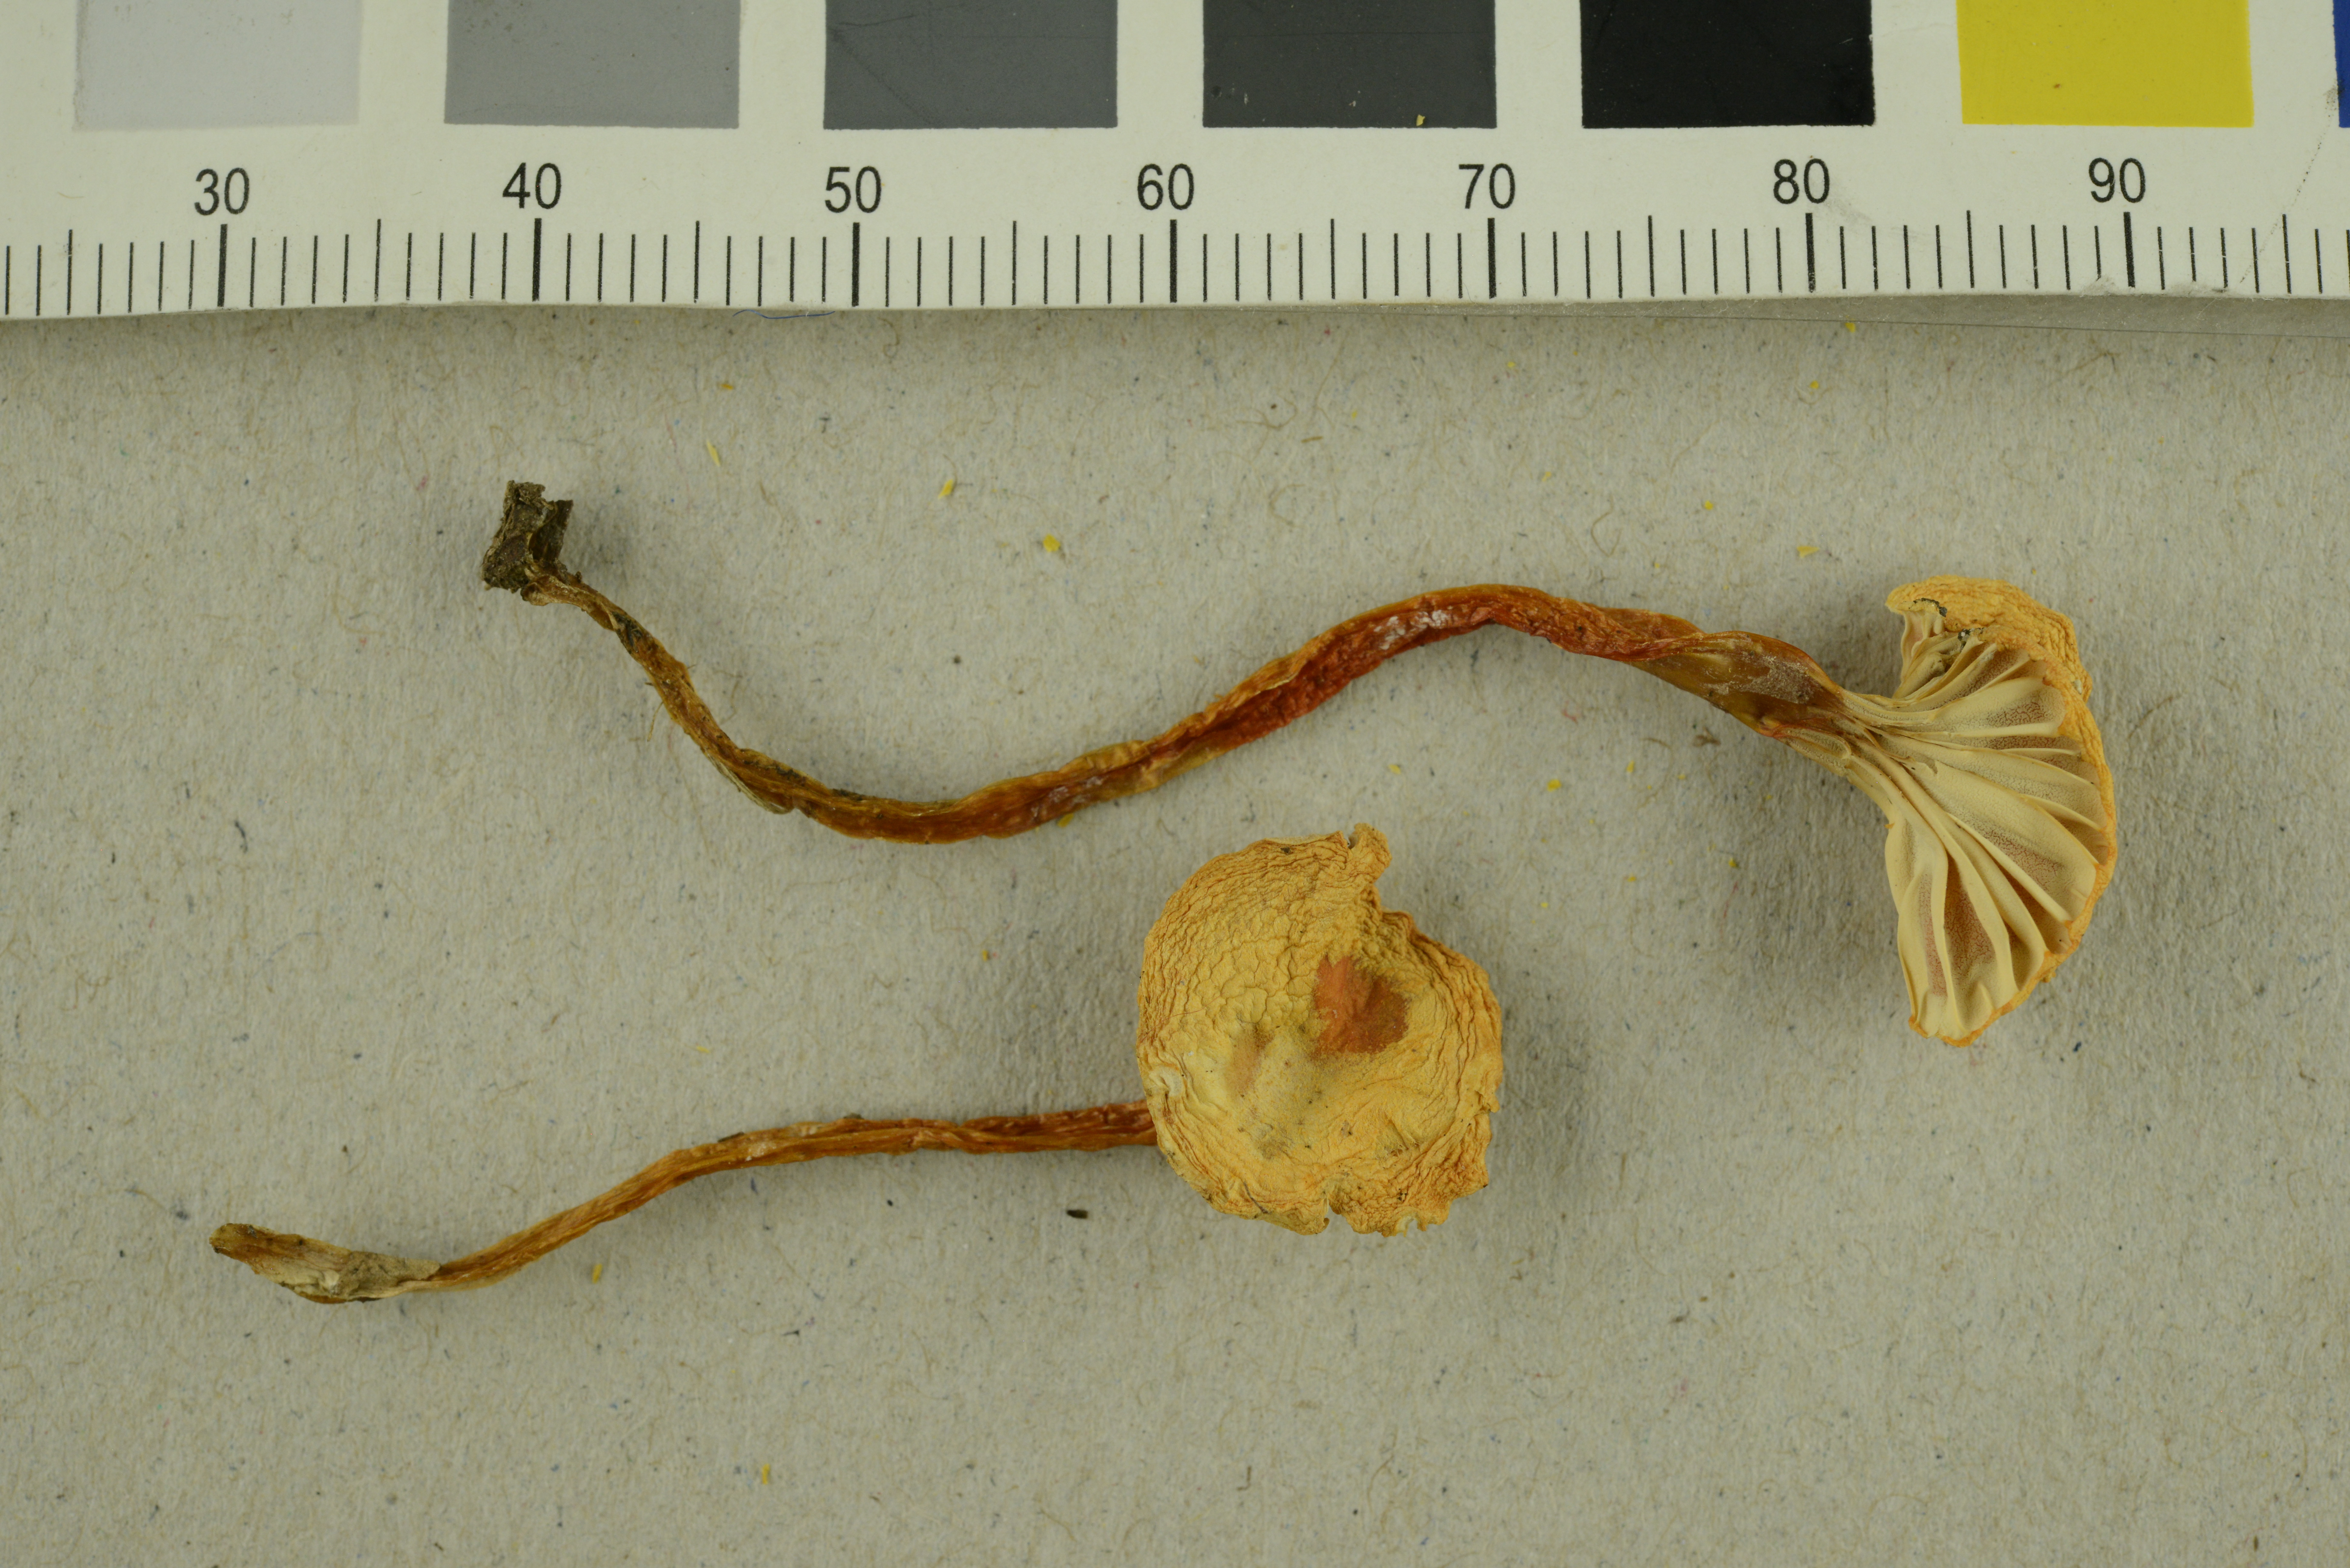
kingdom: Fungi
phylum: Basidiomycota
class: Agaricomycetes
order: Agaricales
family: Hygrophoraceae
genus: Hygrocybe
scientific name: Hygrocybe cantharellus
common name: Goblet waxcap
